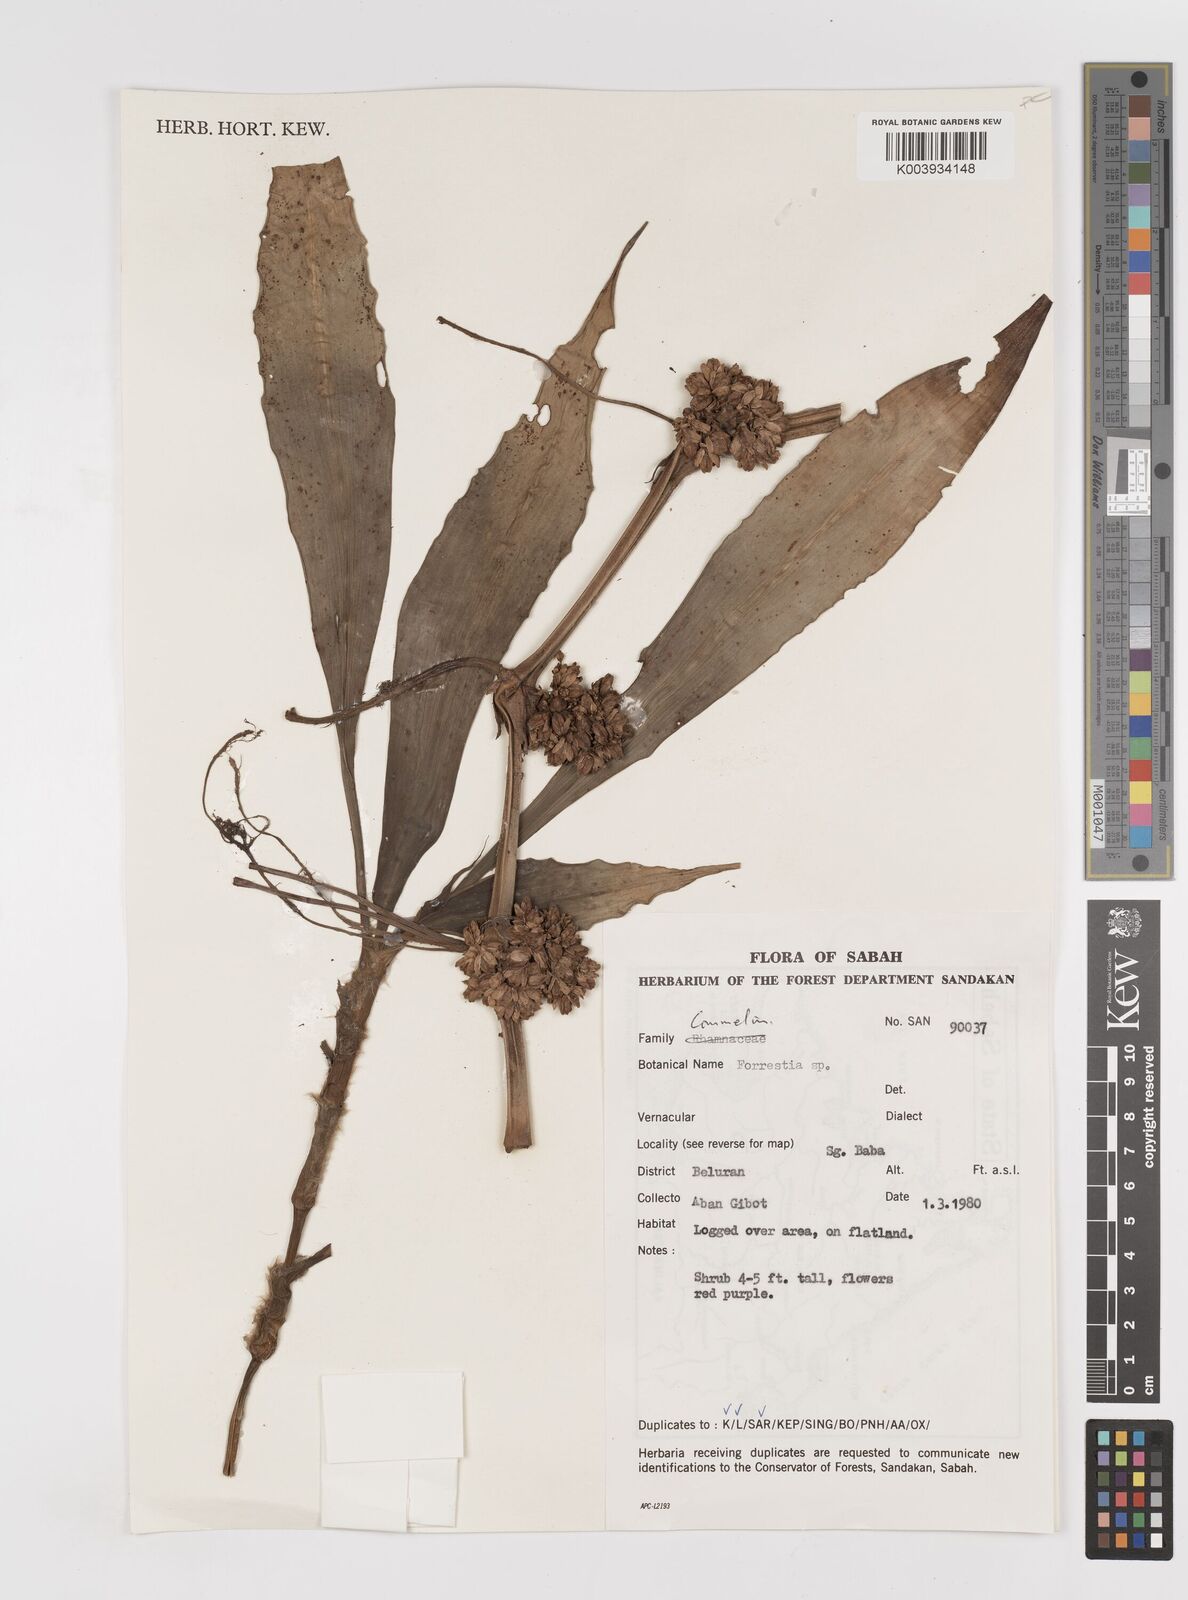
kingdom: Plantae
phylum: Tracheophyta
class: Liliopsida
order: Commelinales
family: Commelinaceae
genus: Amischotolype
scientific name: Amischotolype
